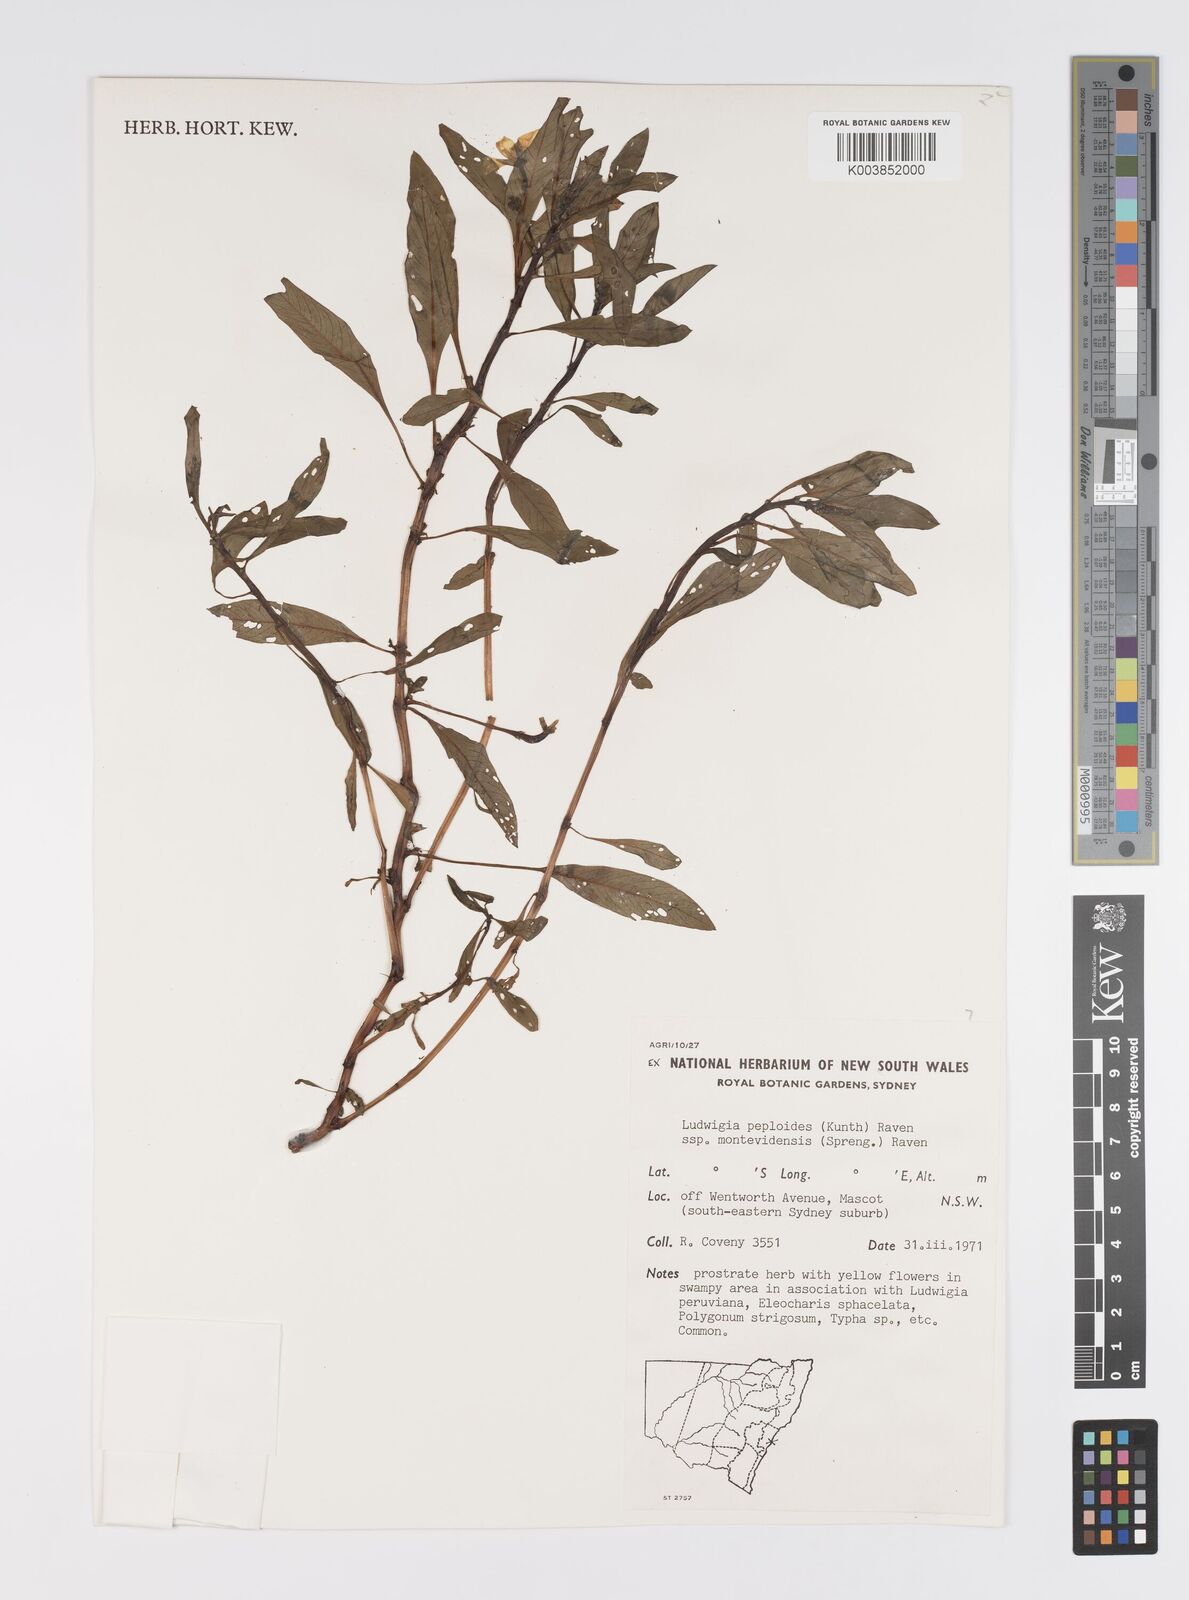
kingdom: Plantae
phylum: Tracheophyta
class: Magnoliopsida
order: Myrtales
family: Onagraceae
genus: Ludwigia
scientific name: Ludwigia peploides
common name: Floating primrose-willow
